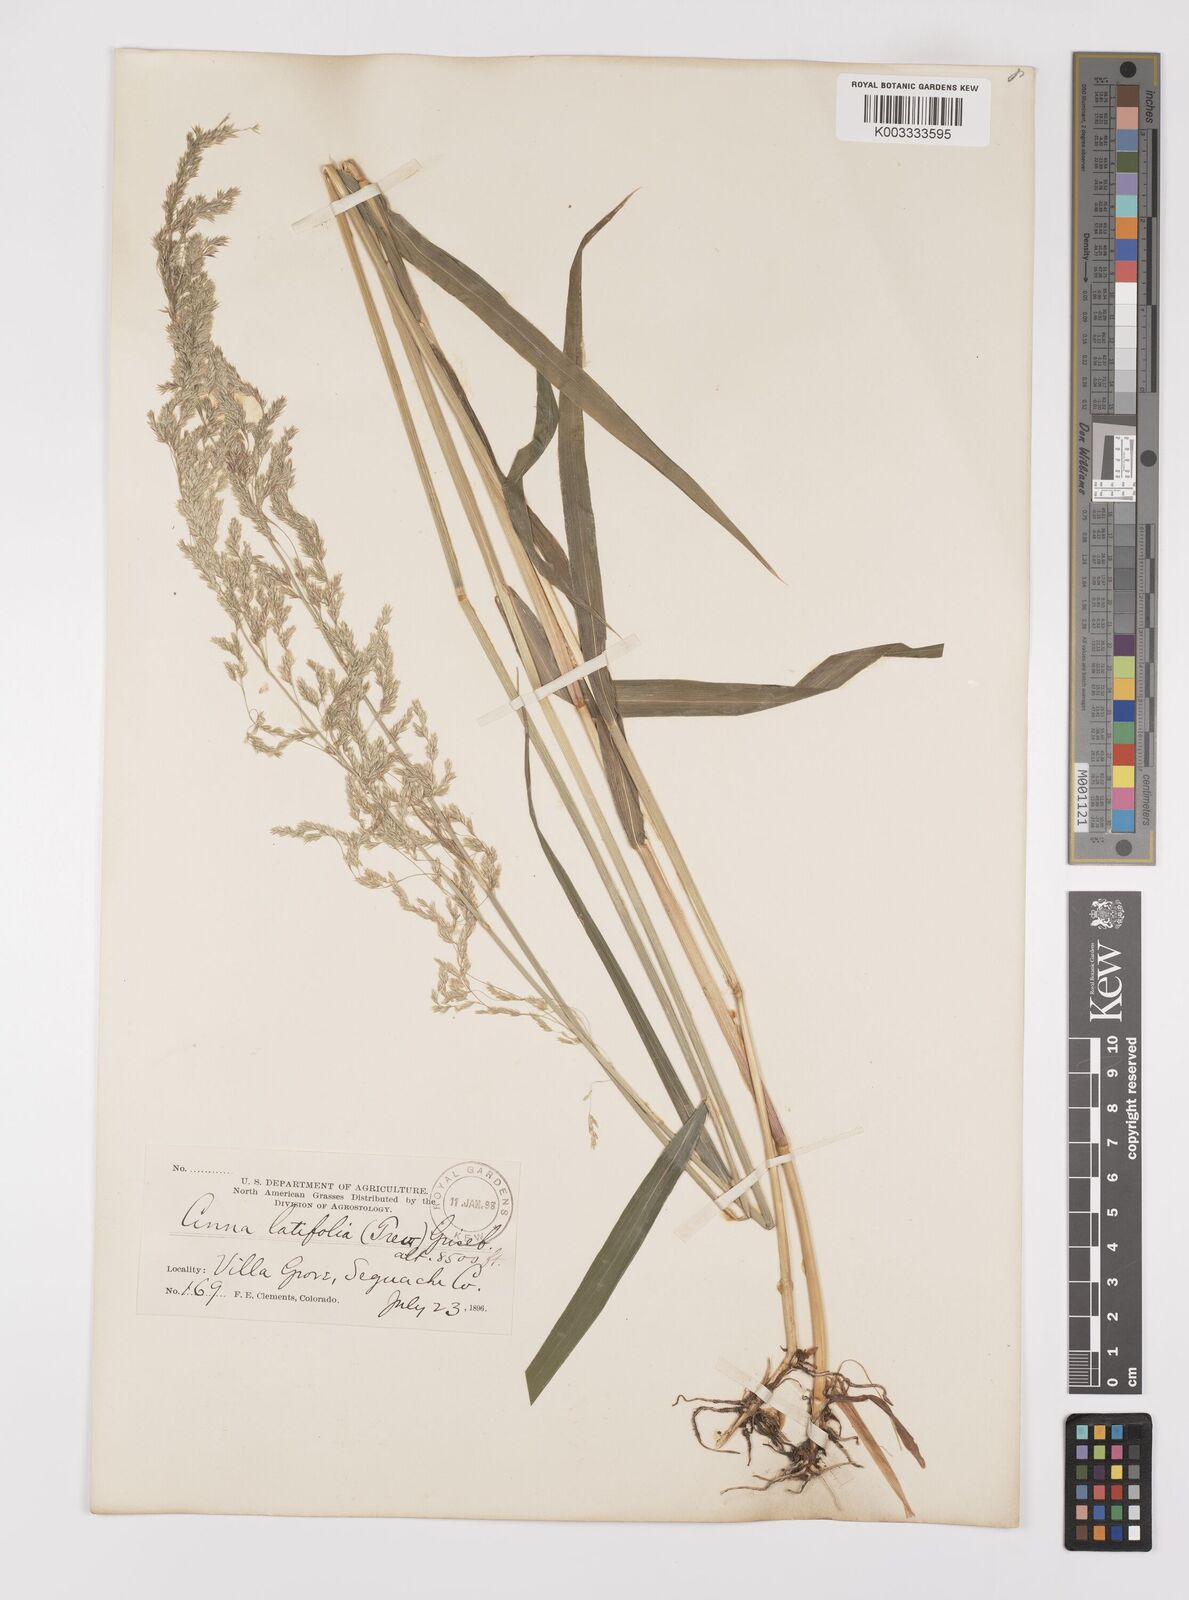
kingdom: Plantae
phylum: Tracheophyta
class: Liliopsida
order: Poales
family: Poaceae
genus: Cinna
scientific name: Cinna latifolia
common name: Drooping woodreed
